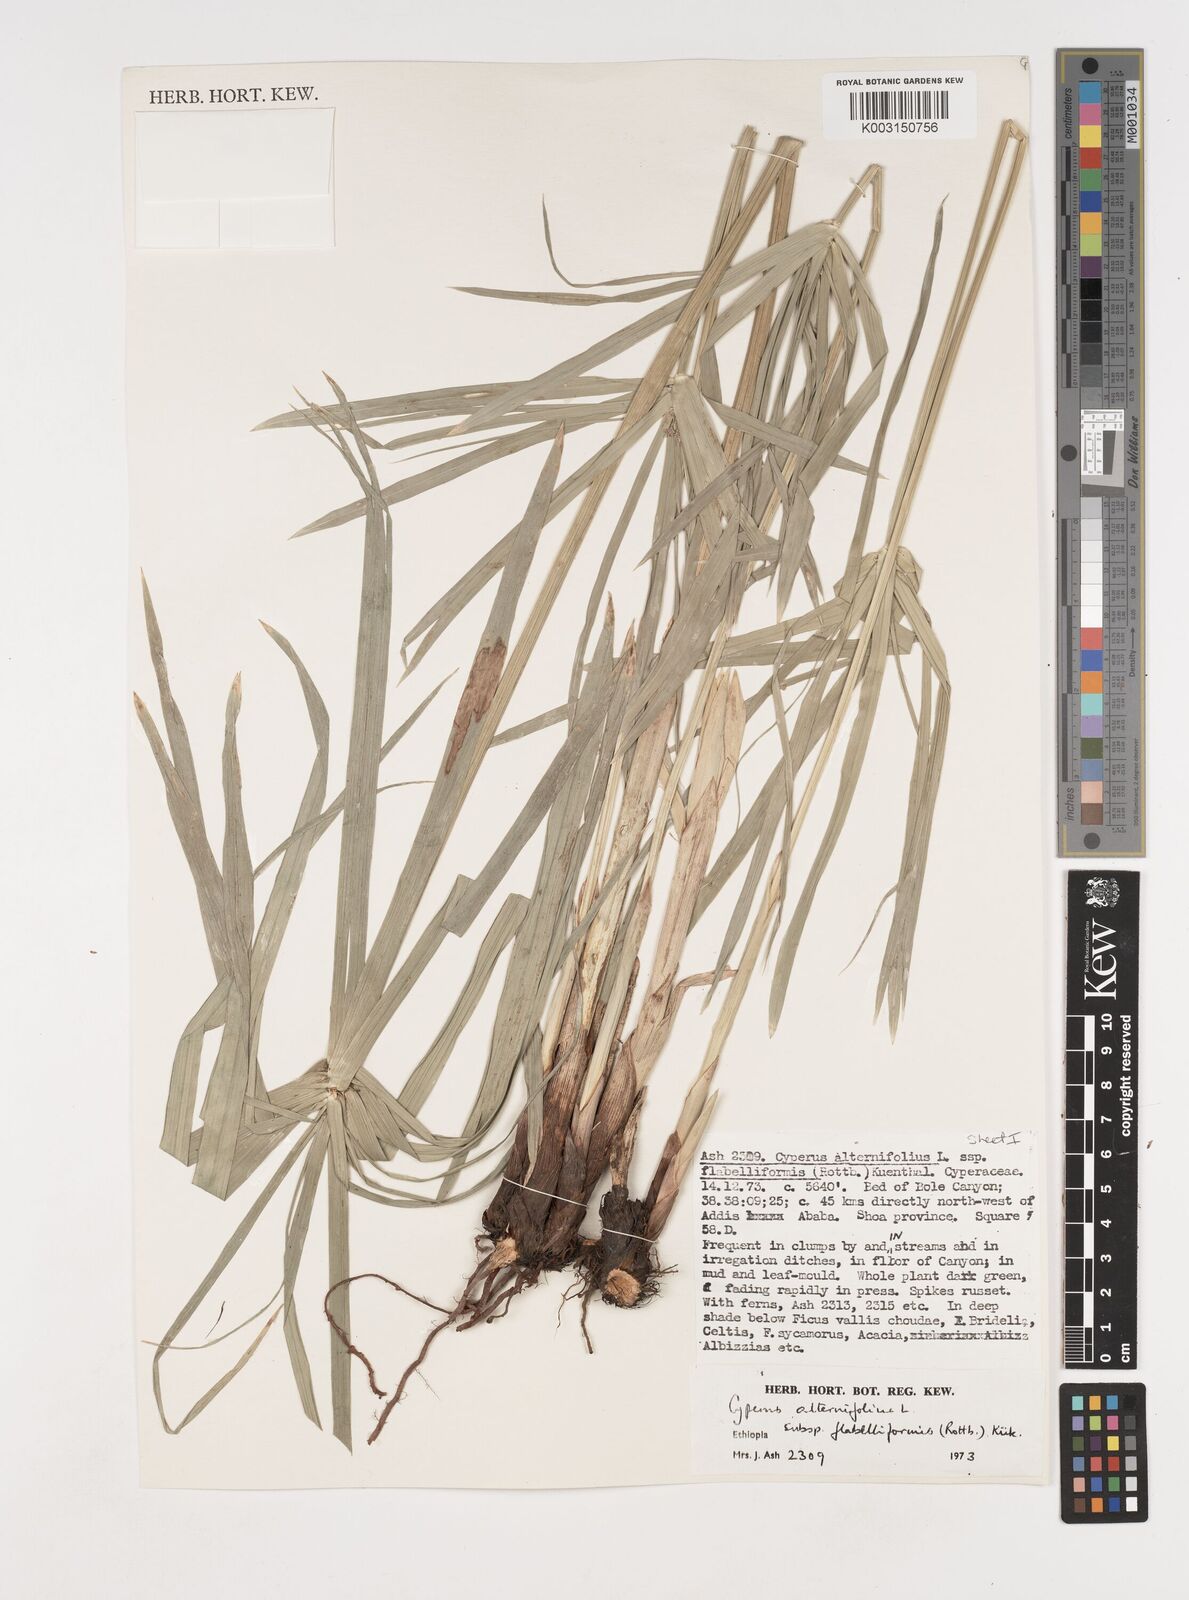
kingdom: Plantae
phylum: Tracheophyta
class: Liliopsida
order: Poales
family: Cyperaceae
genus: Cyperus
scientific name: Cyperus alternifolius
